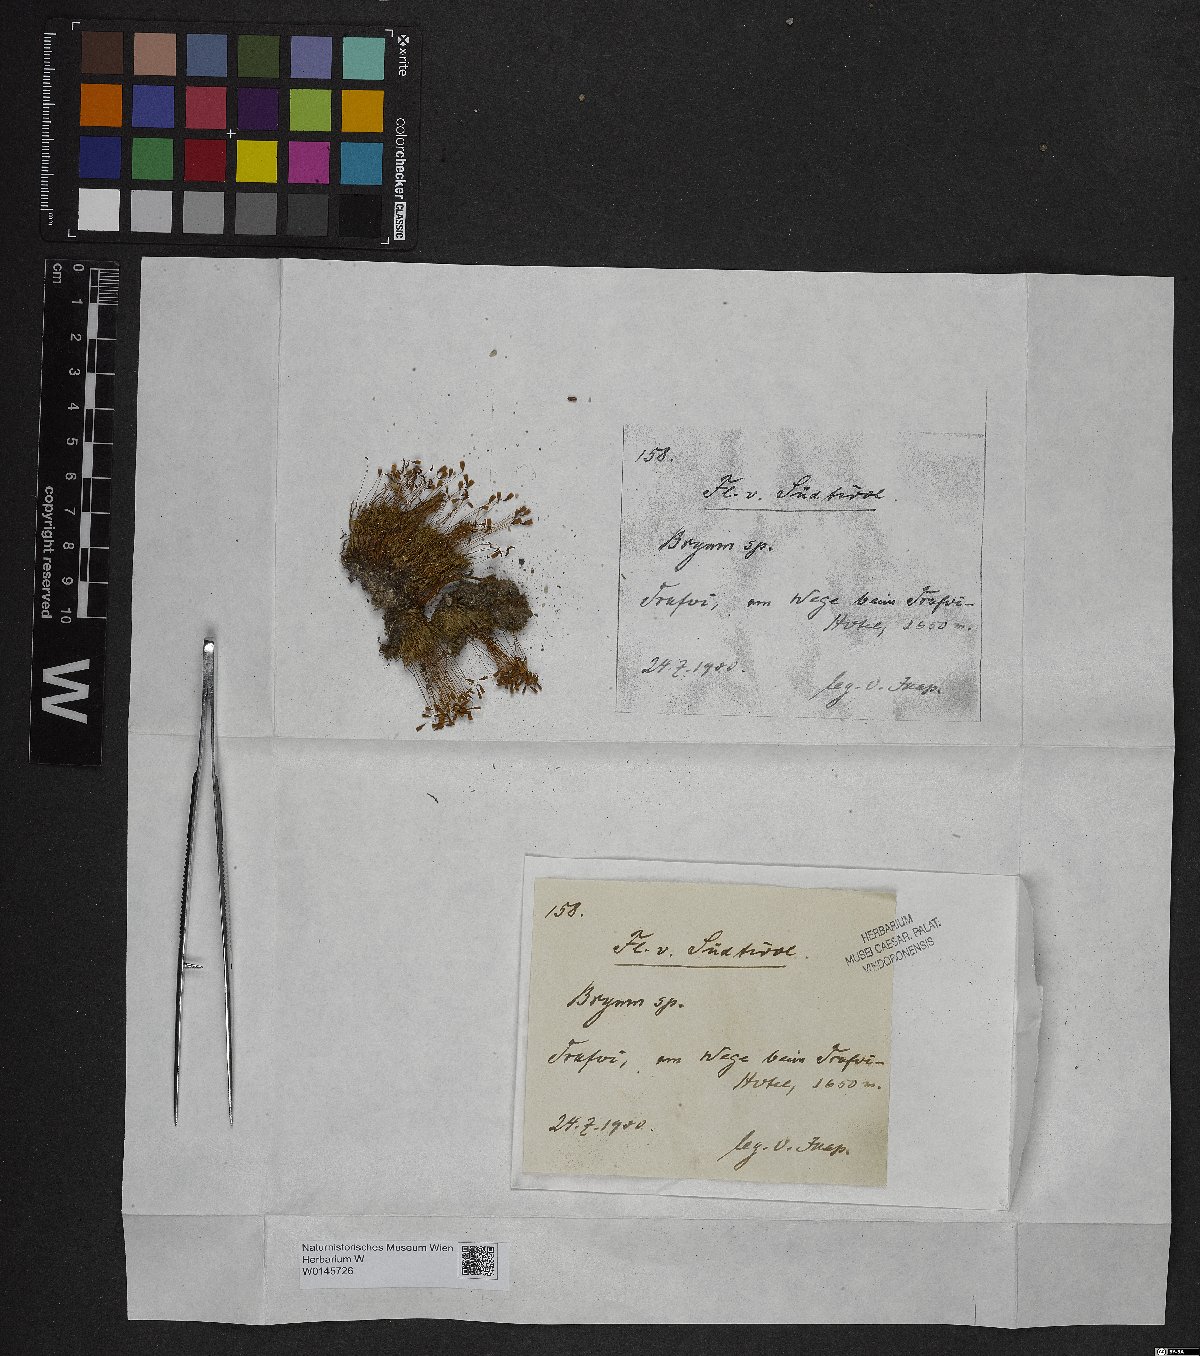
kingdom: Plantae
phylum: Bryophyta
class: Bryopsida
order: Bryales
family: Bryaceae
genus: Bryum
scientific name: Bryum
